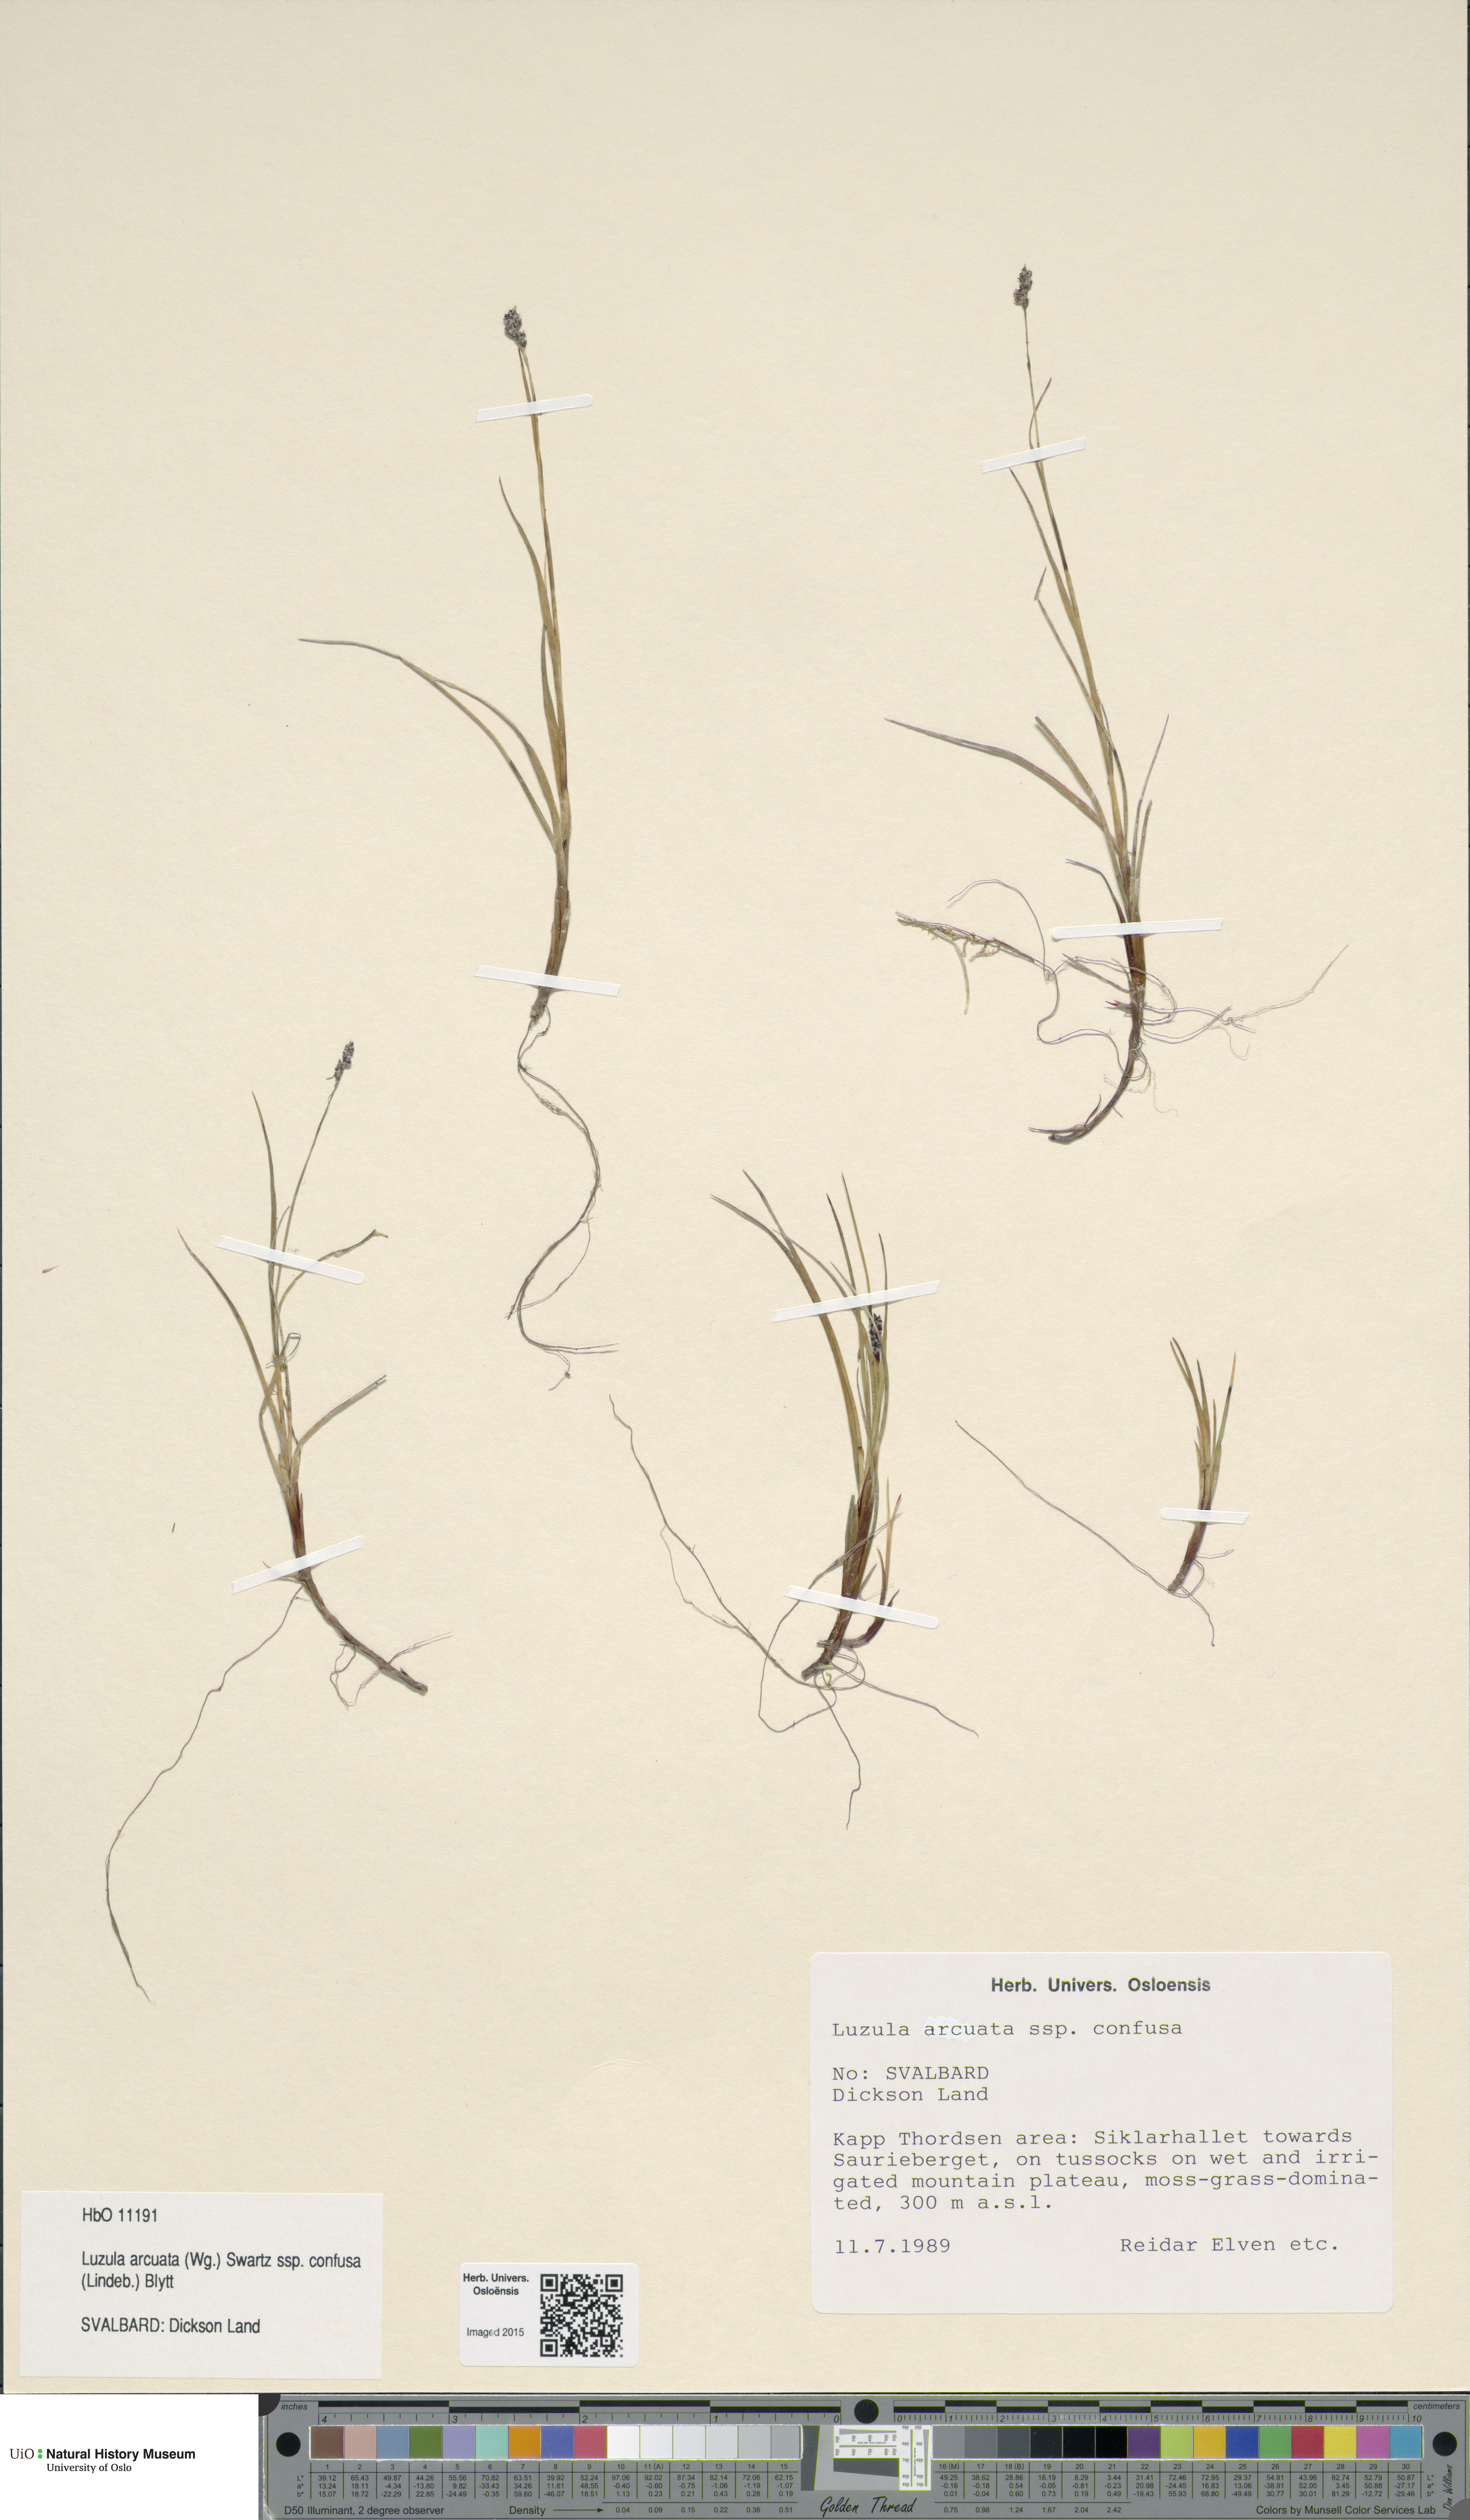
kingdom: Plantae
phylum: Tracheophyta
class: Liliopsida
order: Poales
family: Juncaceae
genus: Luzula
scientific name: Luzula confusa
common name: Northern wood rush
